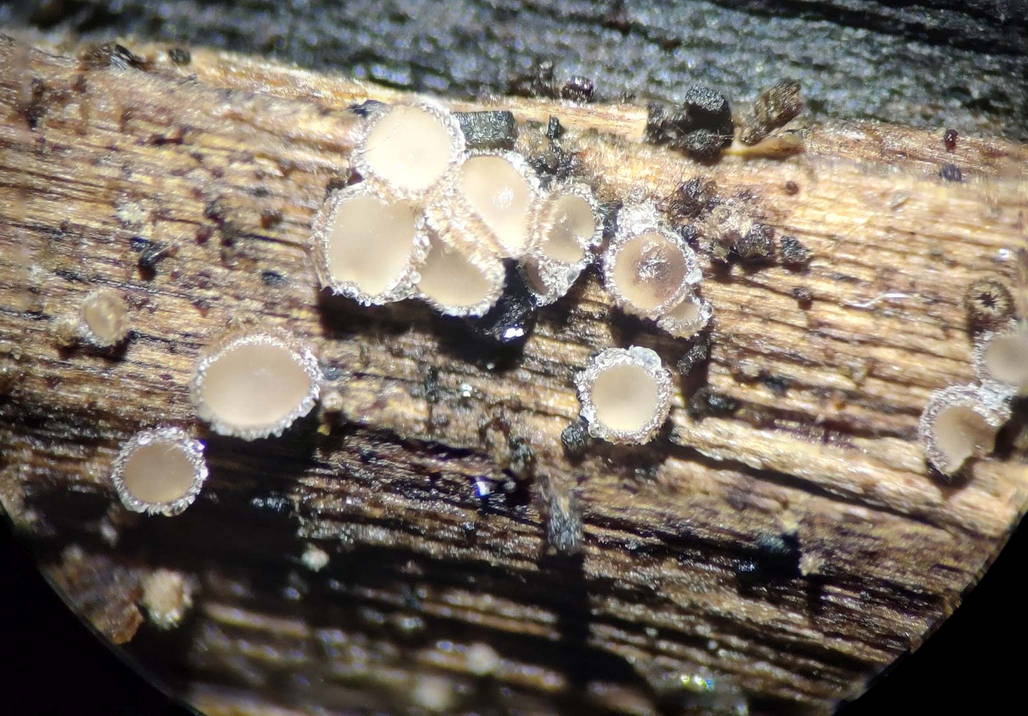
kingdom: Fungi
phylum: Ascomycota
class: Leotiomycetes
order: Helotiales
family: Solenopeziaceae
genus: Lasiobelonium
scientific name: Lasiobelonium variegatum
